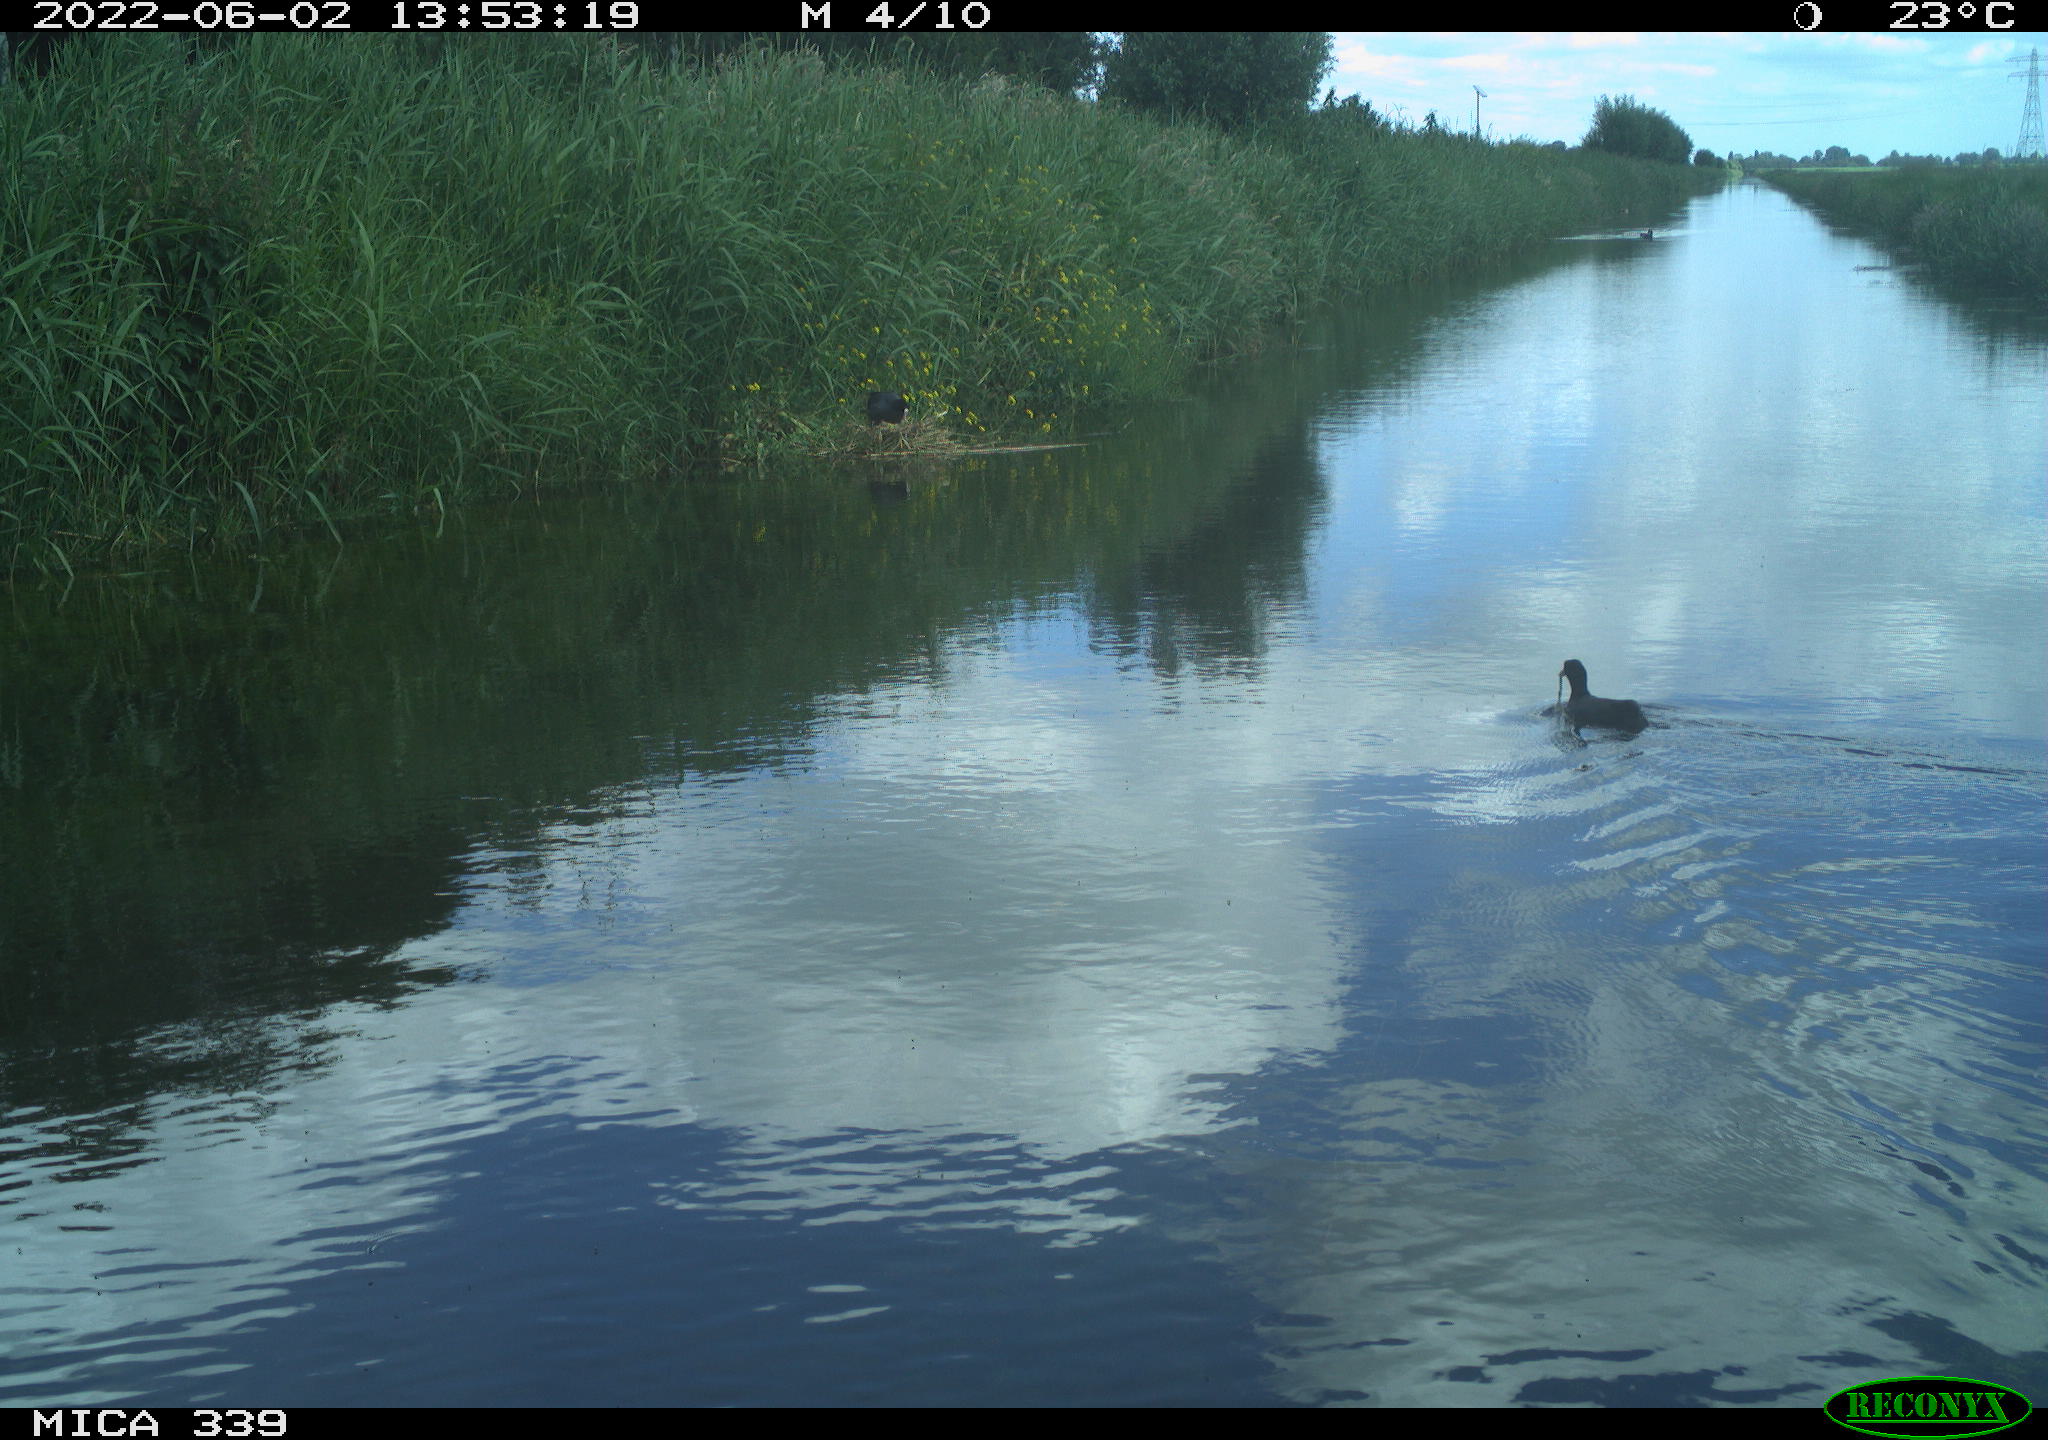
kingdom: Animalia
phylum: Chordata
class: Aves
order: Gruiformes
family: Rallidae
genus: Fulica
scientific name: Fulica atra
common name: Eurasian coot
